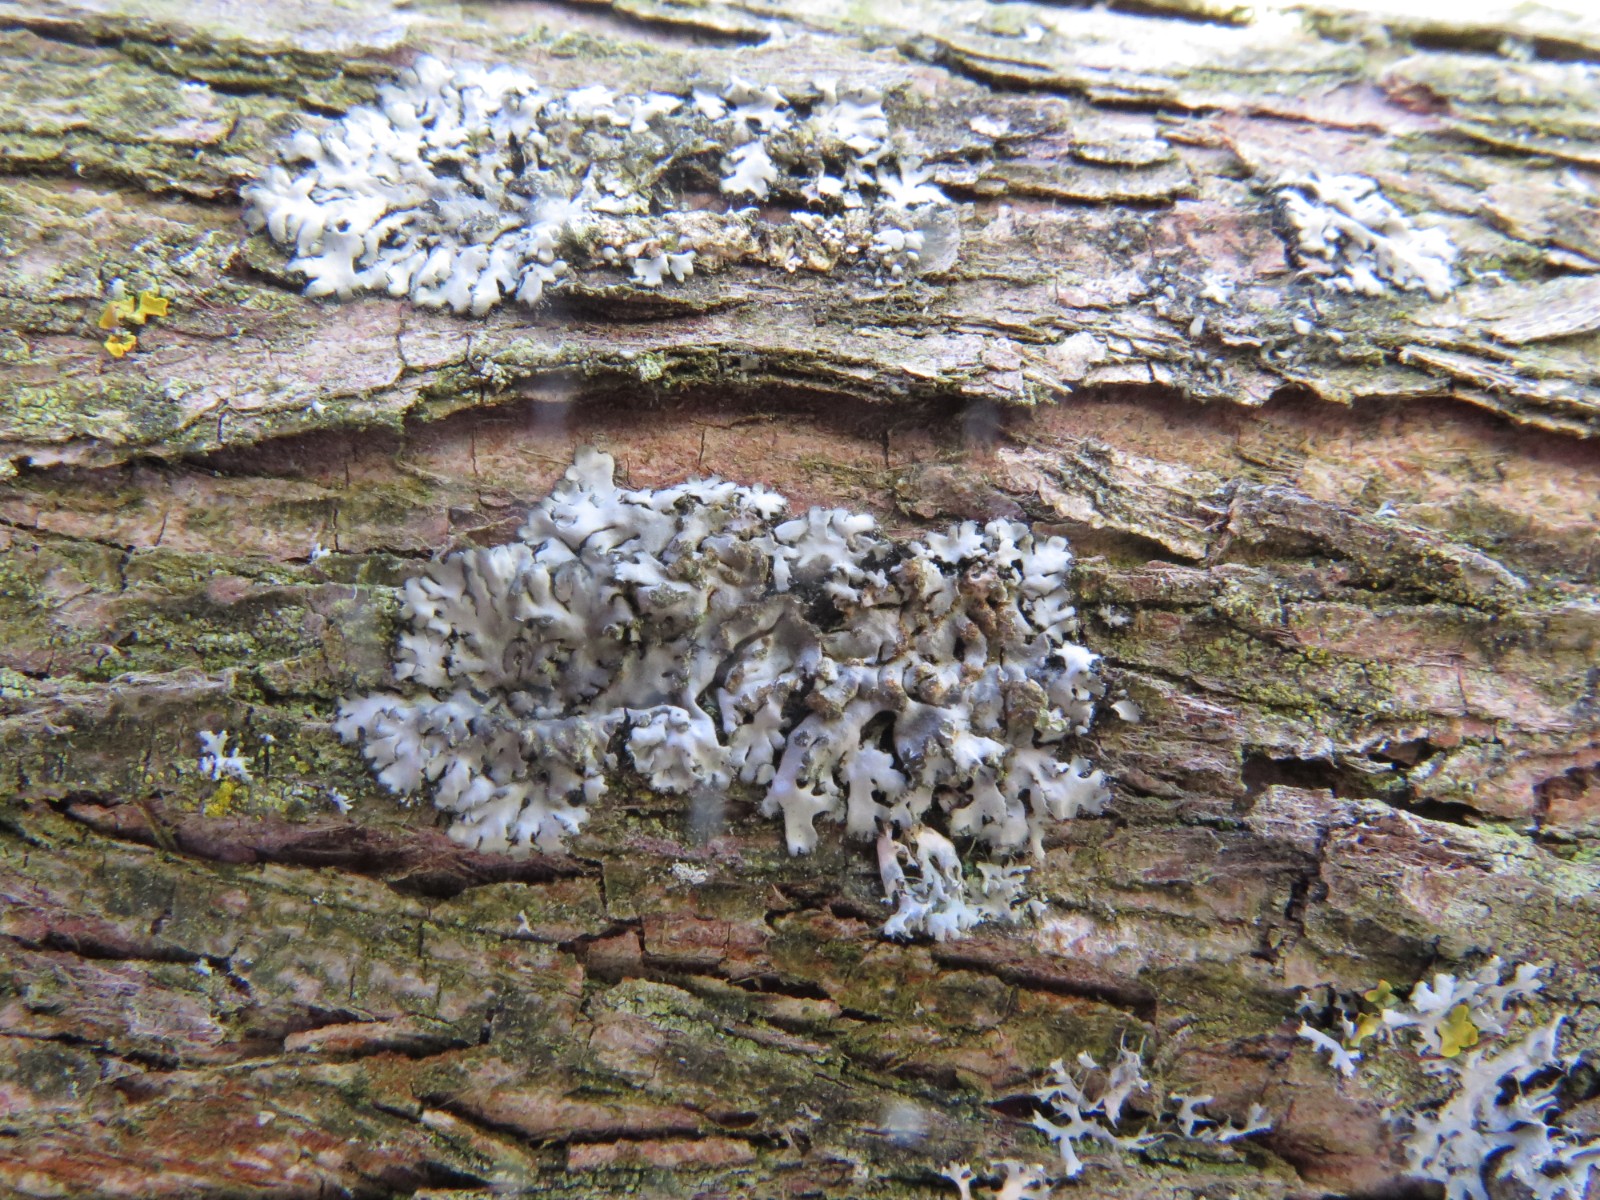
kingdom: Fungi
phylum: Ascomycota
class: Lecanoromycetes
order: Caliciales
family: Physciaceae
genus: Phaeophyscia
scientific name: Phaeophyscia orbicularis
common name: grågrøn rosetlav
